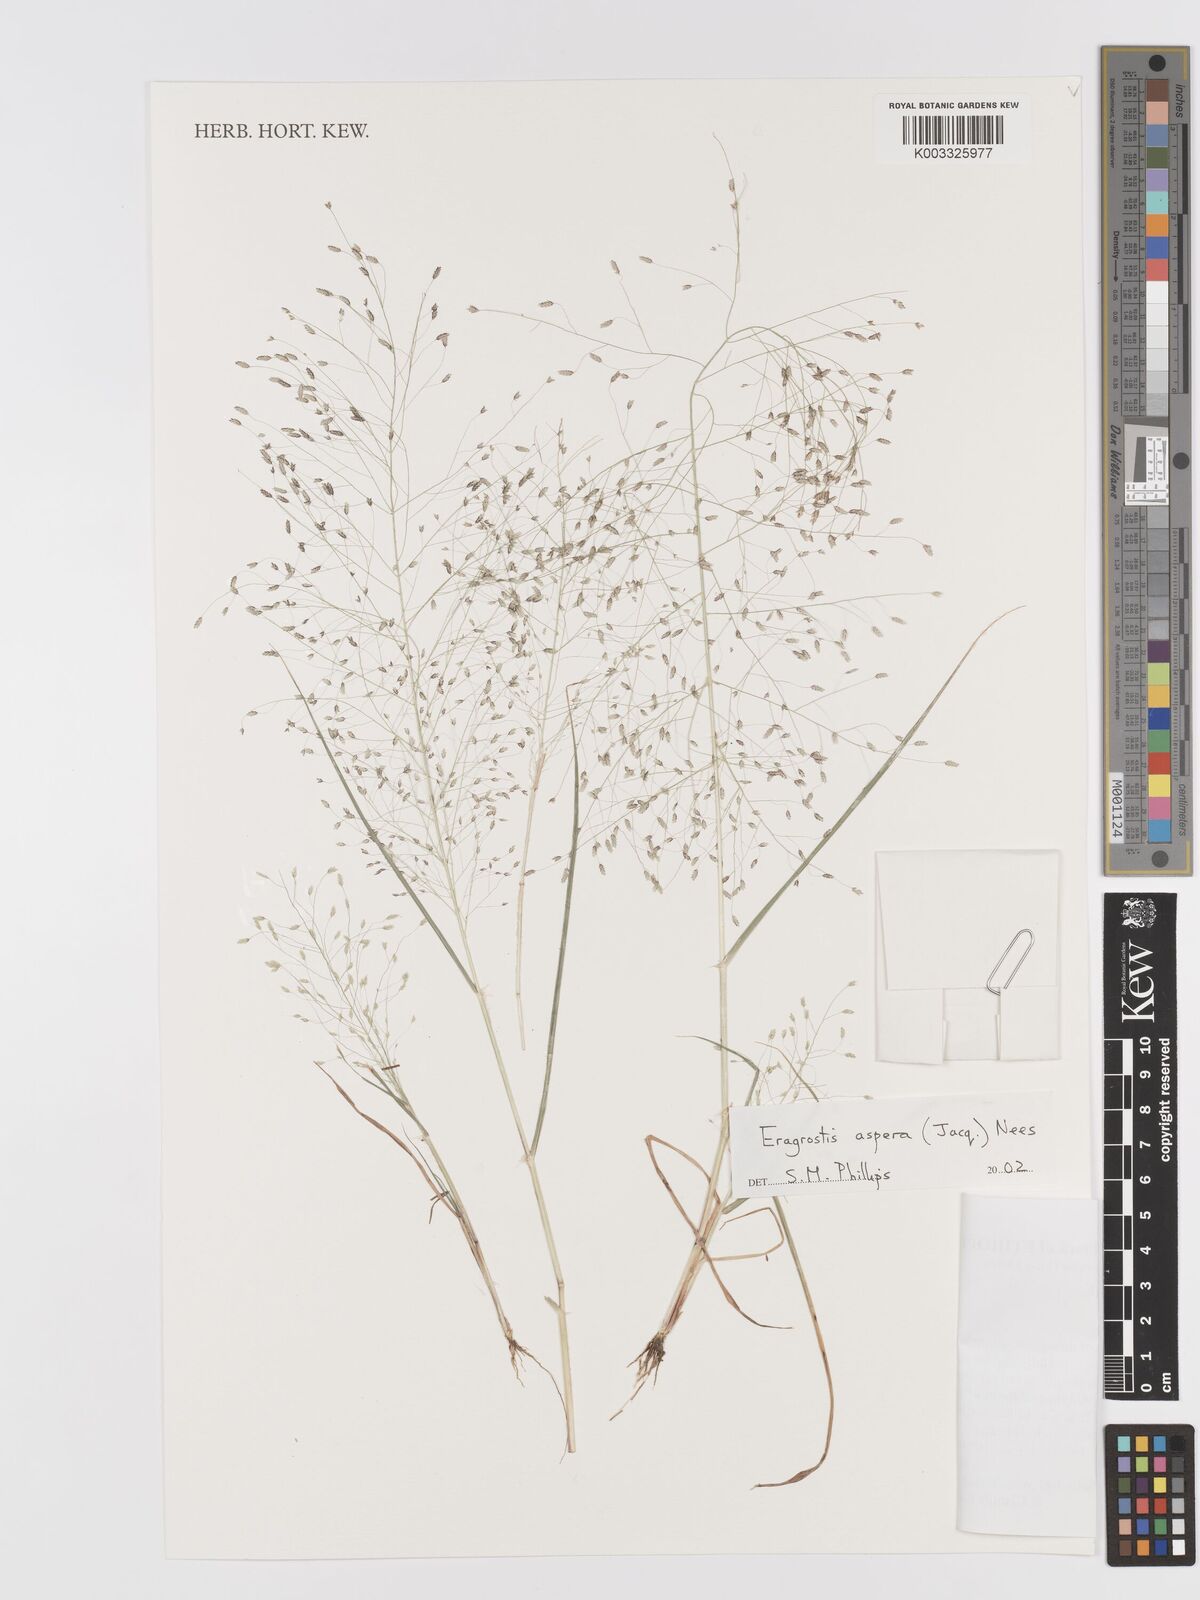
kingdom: Plantae
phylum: Tracheophyta
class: Liliopsida
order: Poales
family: Poaceae
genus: Eragrostis
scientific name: Eragrostis aspera
